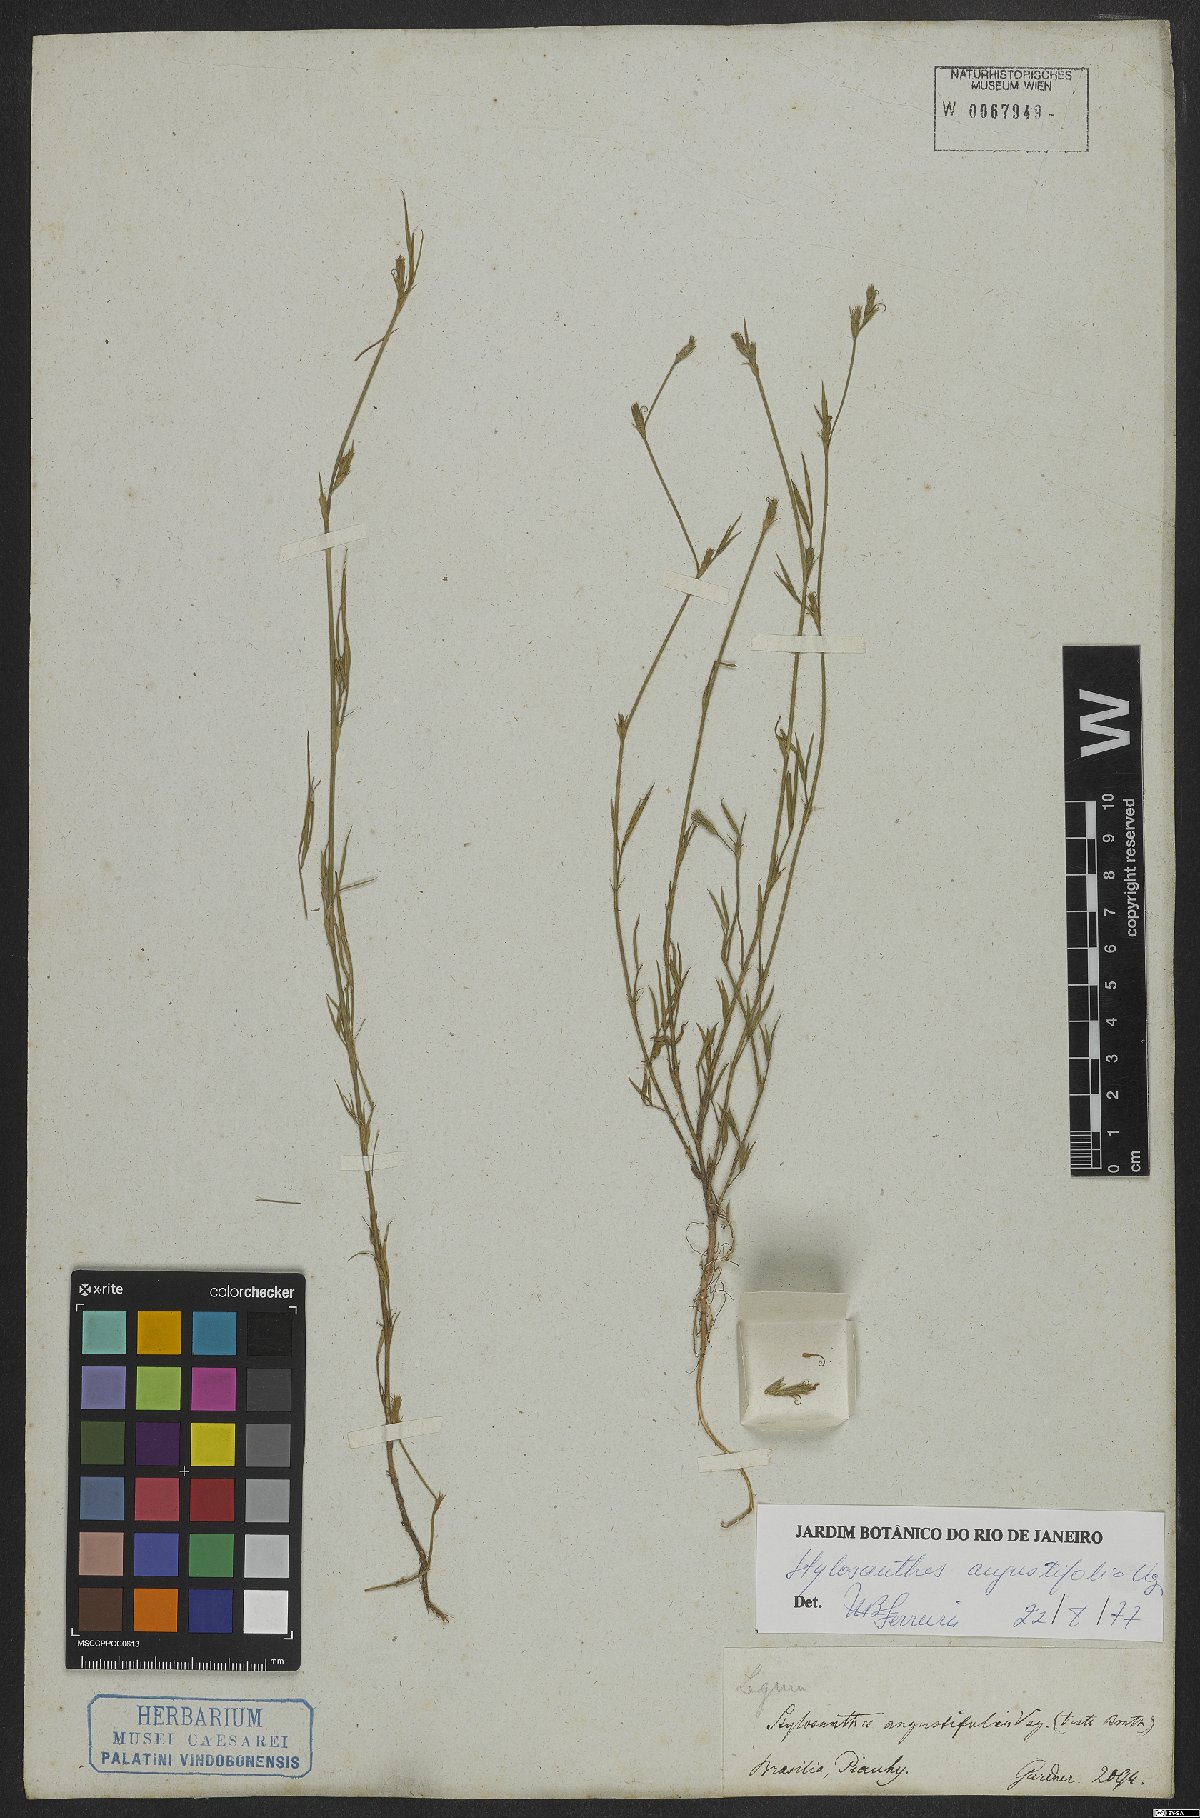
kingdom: Plantae
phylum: Tracheophyta
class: Magnoliopsida
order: Fabales
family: Fabaceae
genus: Stylosanthes
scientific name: Stylosanthes angustifolia
